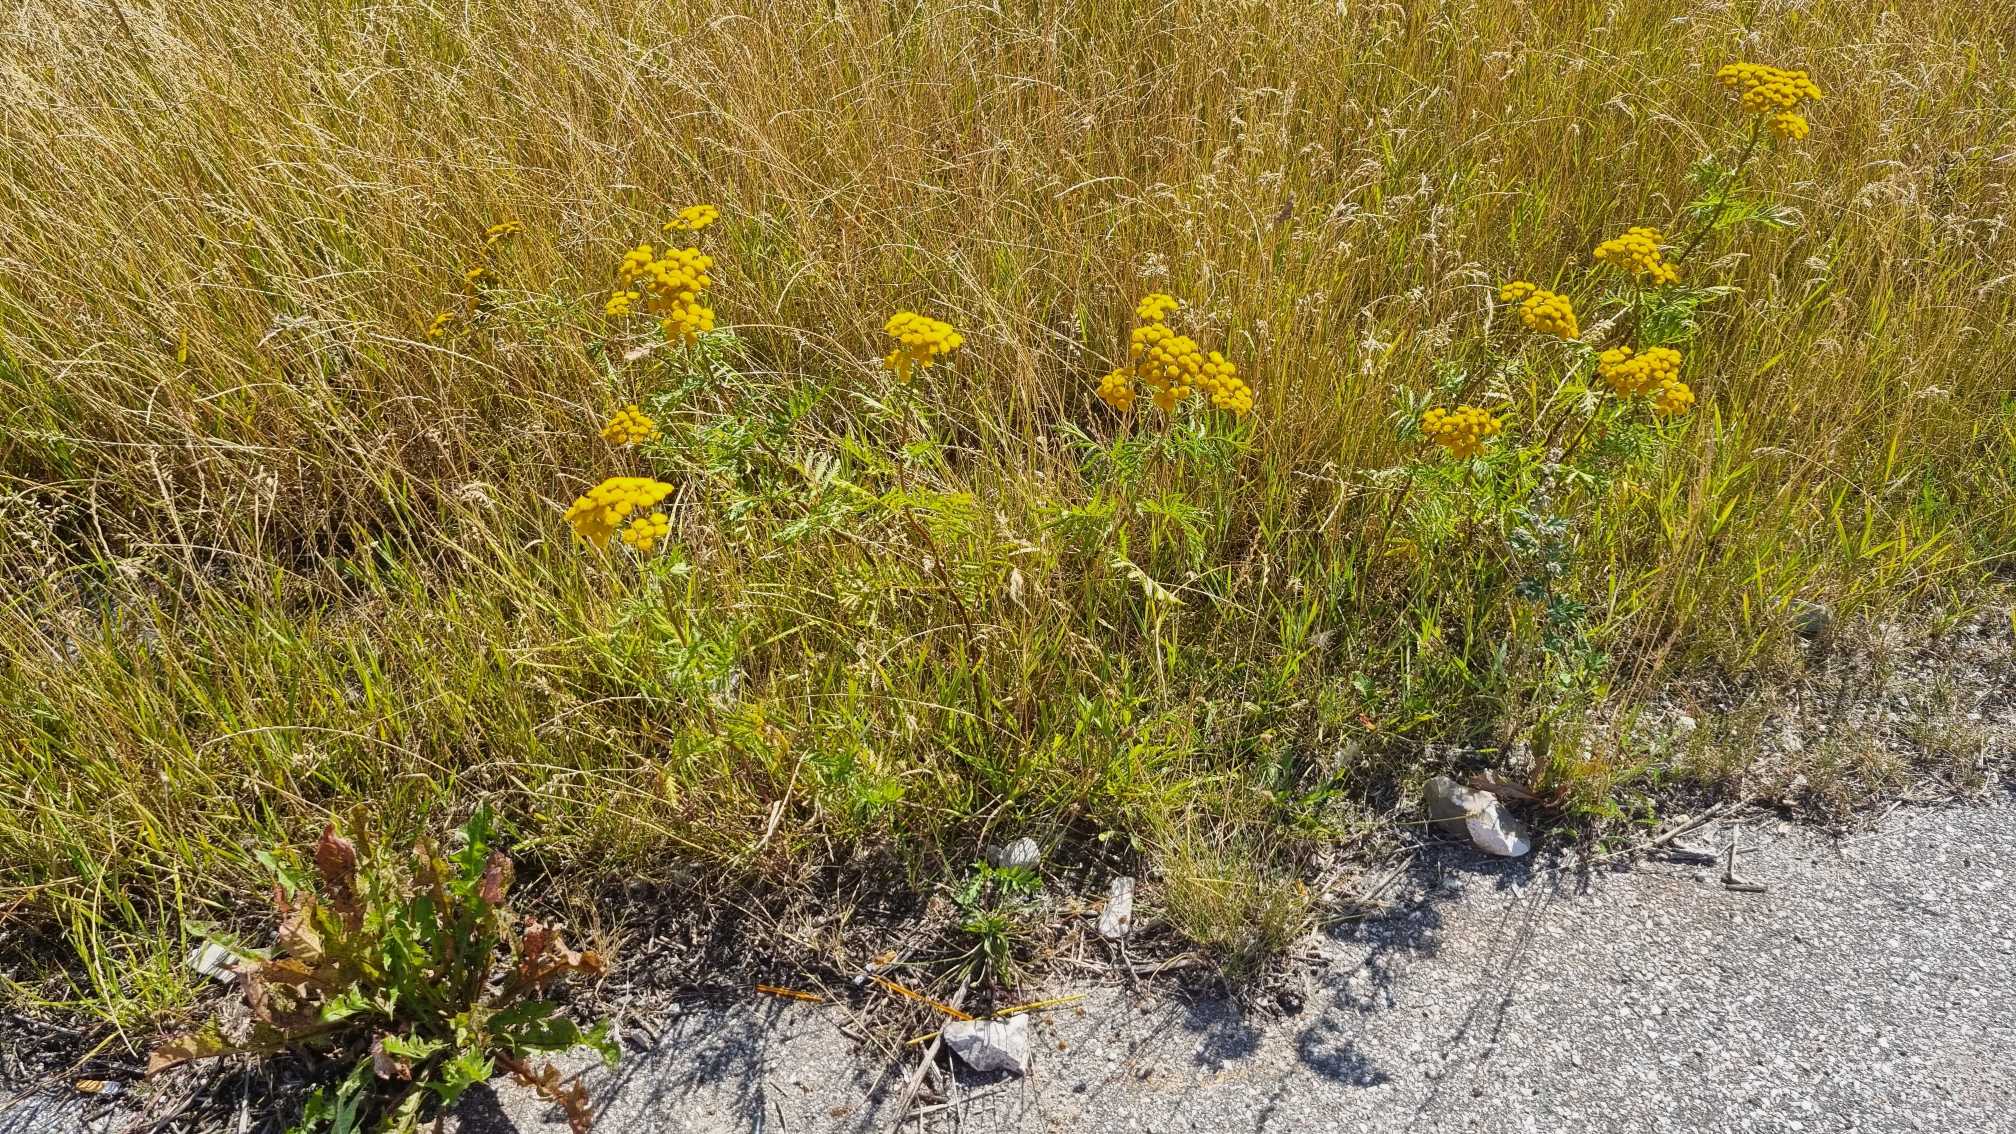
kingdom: Plantae
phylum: Tracheophyta
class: Magnoliopsida
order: Asterales
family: Asteraceae
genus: Tanacetum
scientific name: Tanacetum vulgare
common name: Rejnfan
